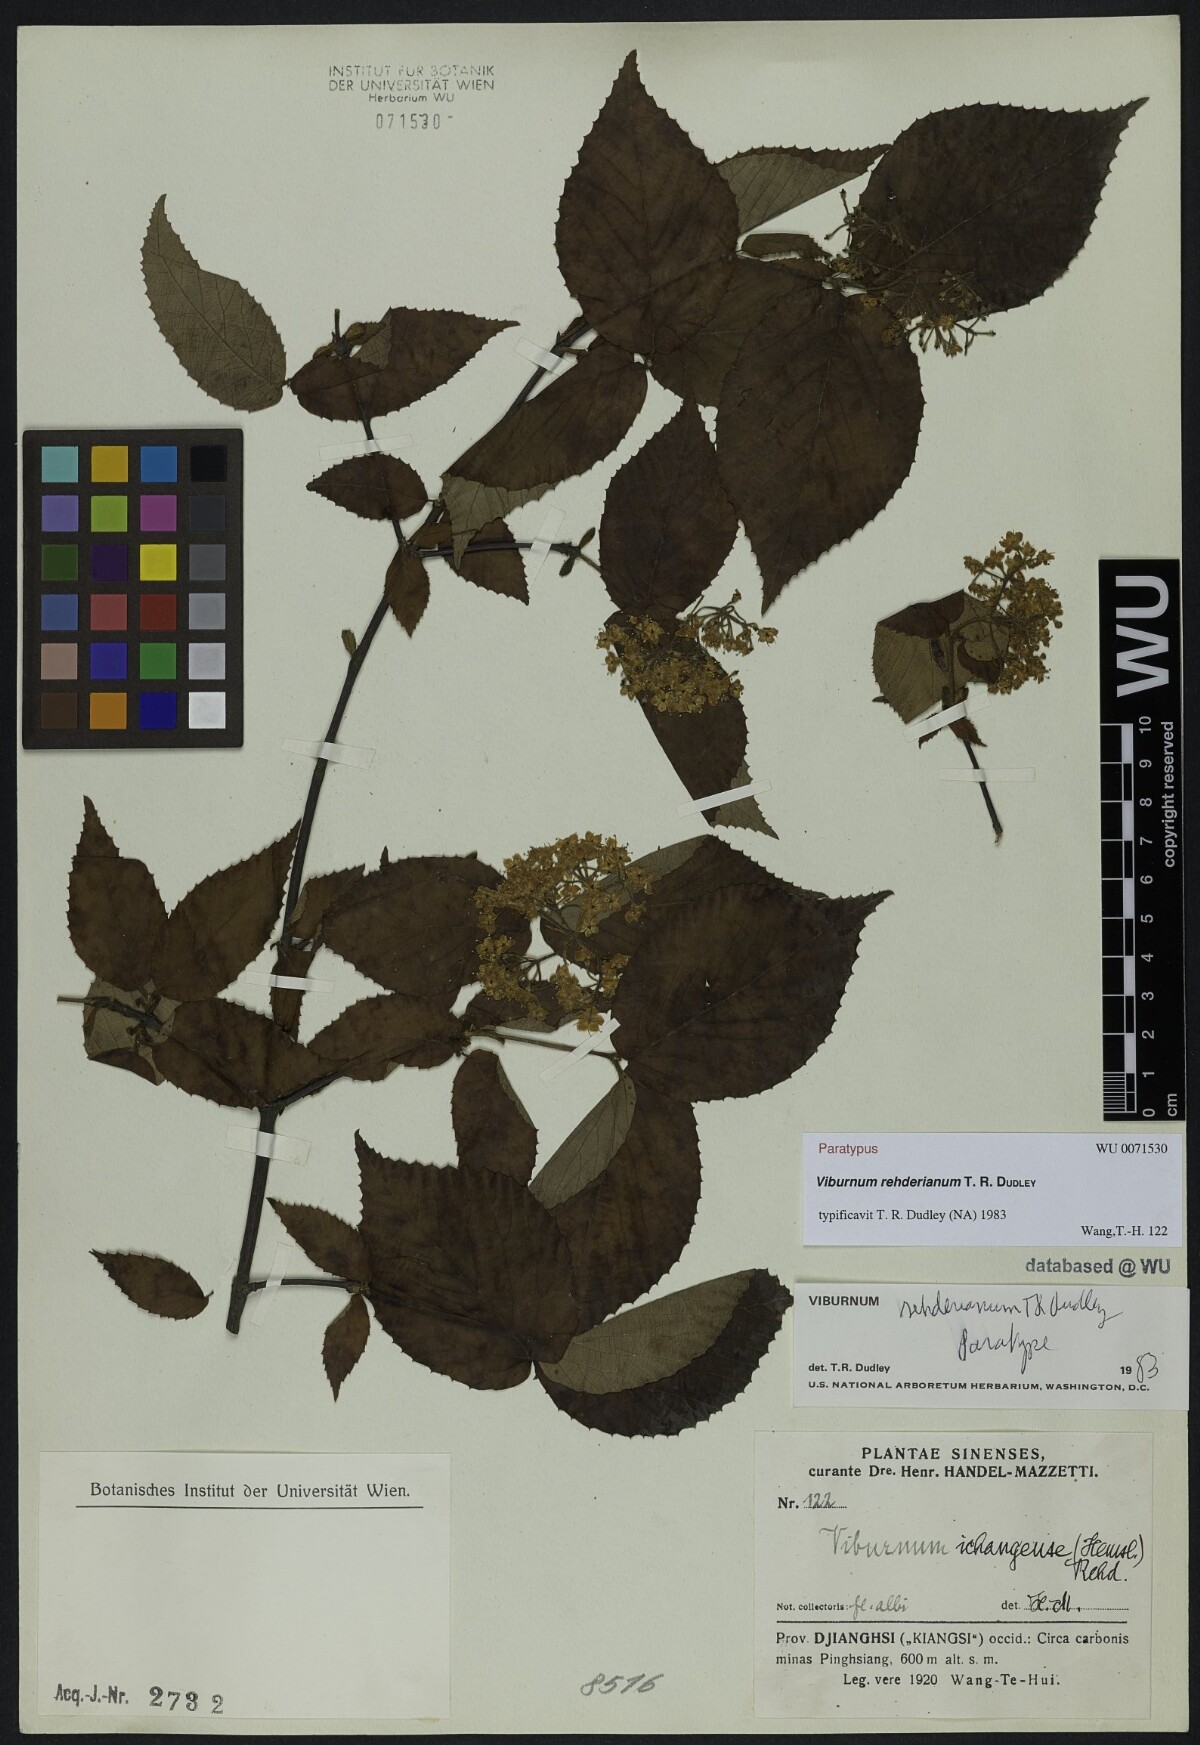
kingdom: Plantae
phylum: Tracheophyta
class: Magnoliopsida
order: Dipsacales
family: Viburnaceae
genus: Viburnum
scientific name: Viburnum taitoense
